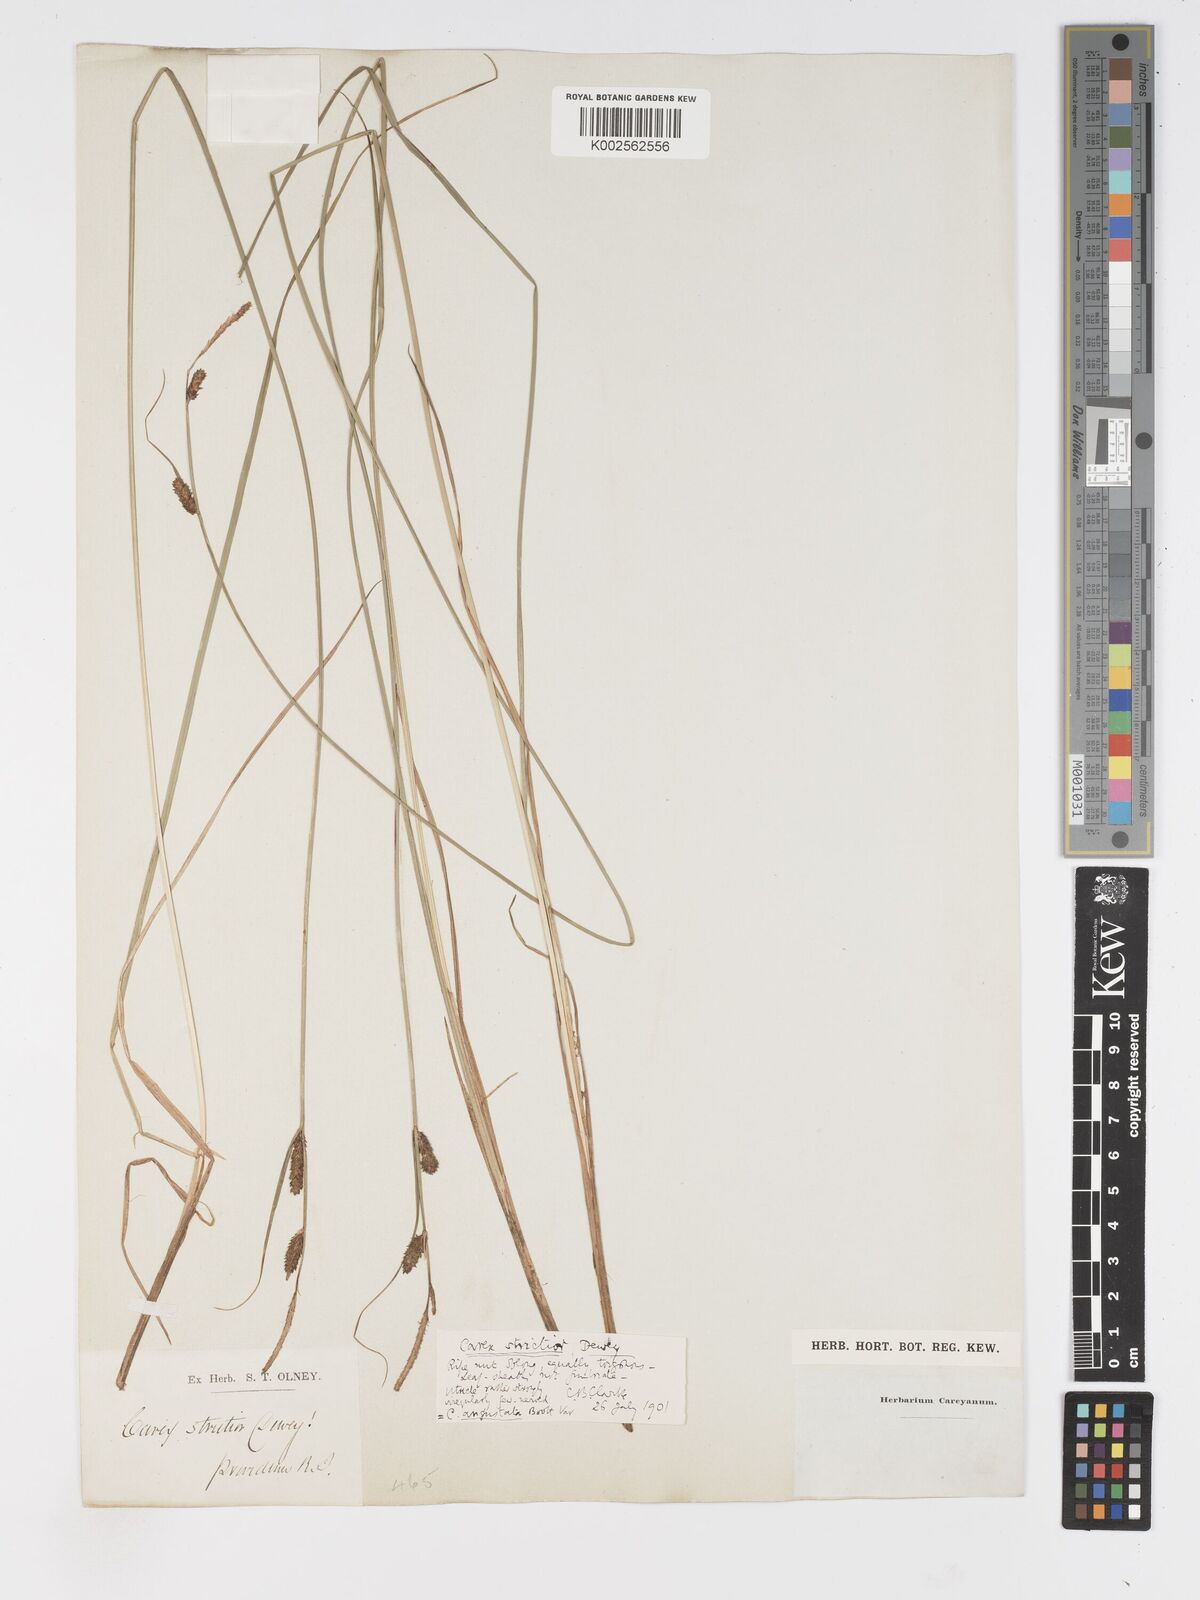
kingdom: Plantae
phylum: Tracheophyta
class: Liliopsida
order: Poales
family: Cyperaceae
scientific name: Cyperaceae
